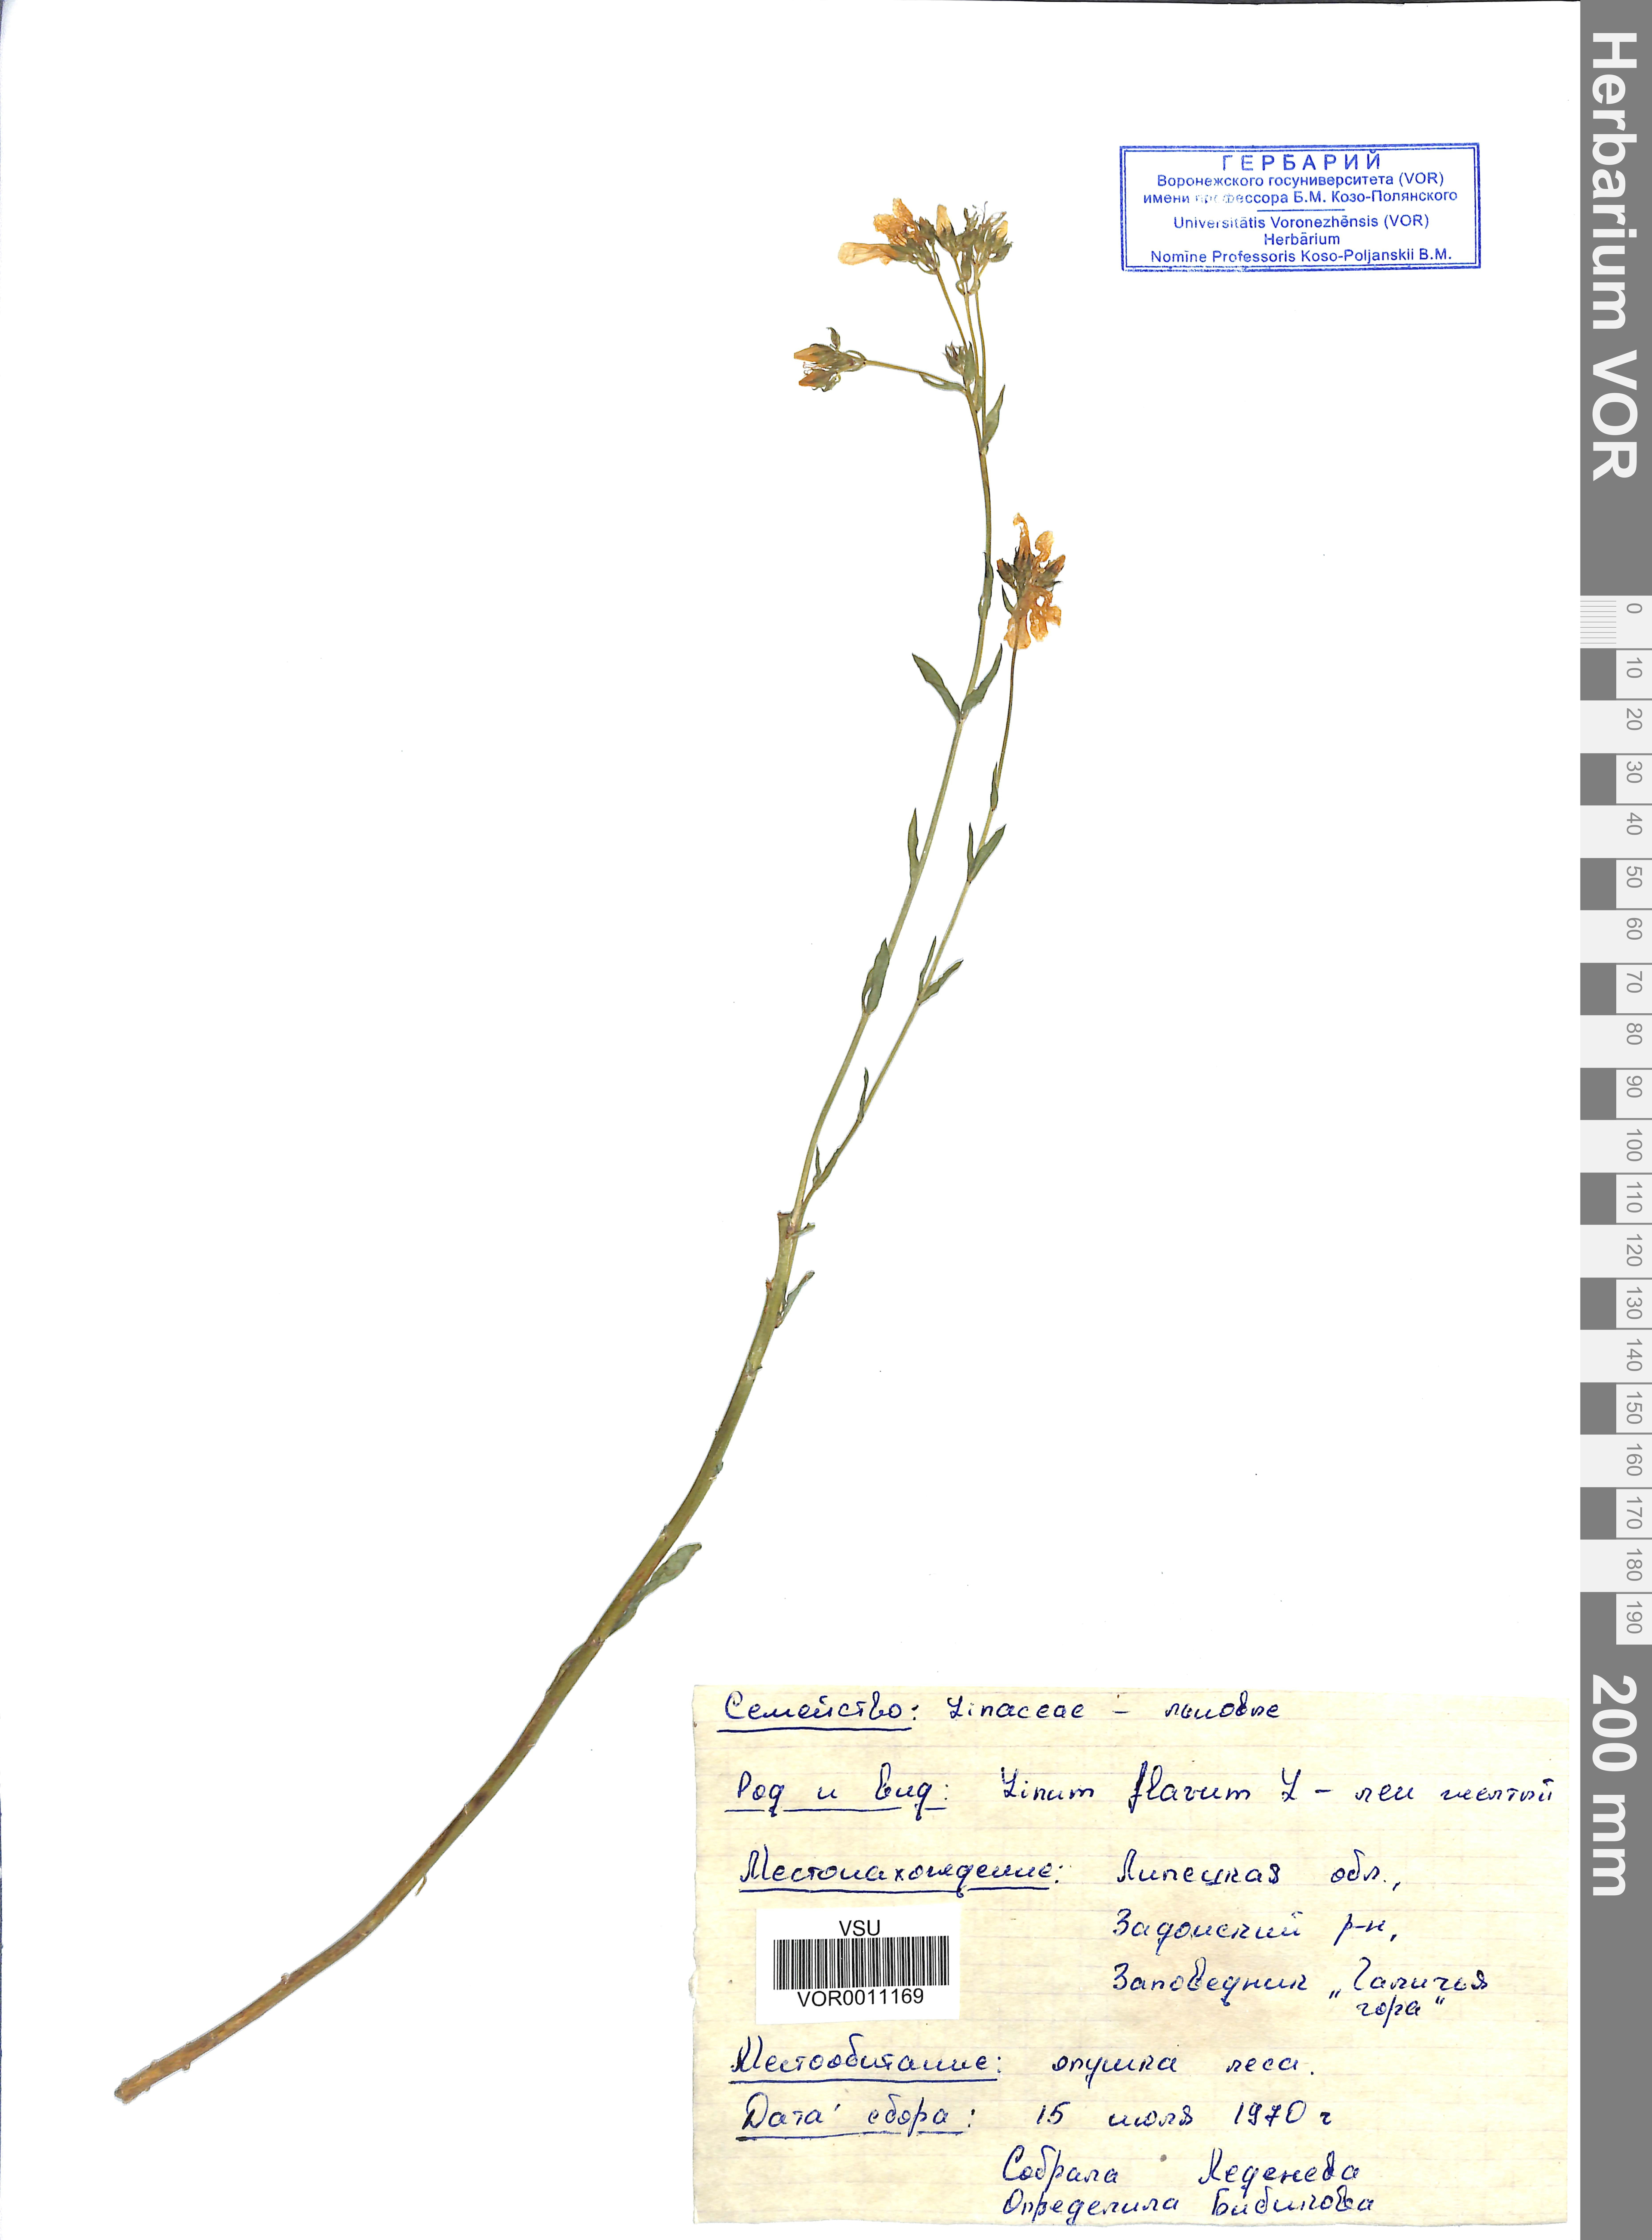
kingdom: Plantae
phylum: Tracheophyta
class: Magnoliopsida
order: Malpighiales
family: Linaceae
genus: Linum
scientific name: Linum flavum
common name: Yellow flax
